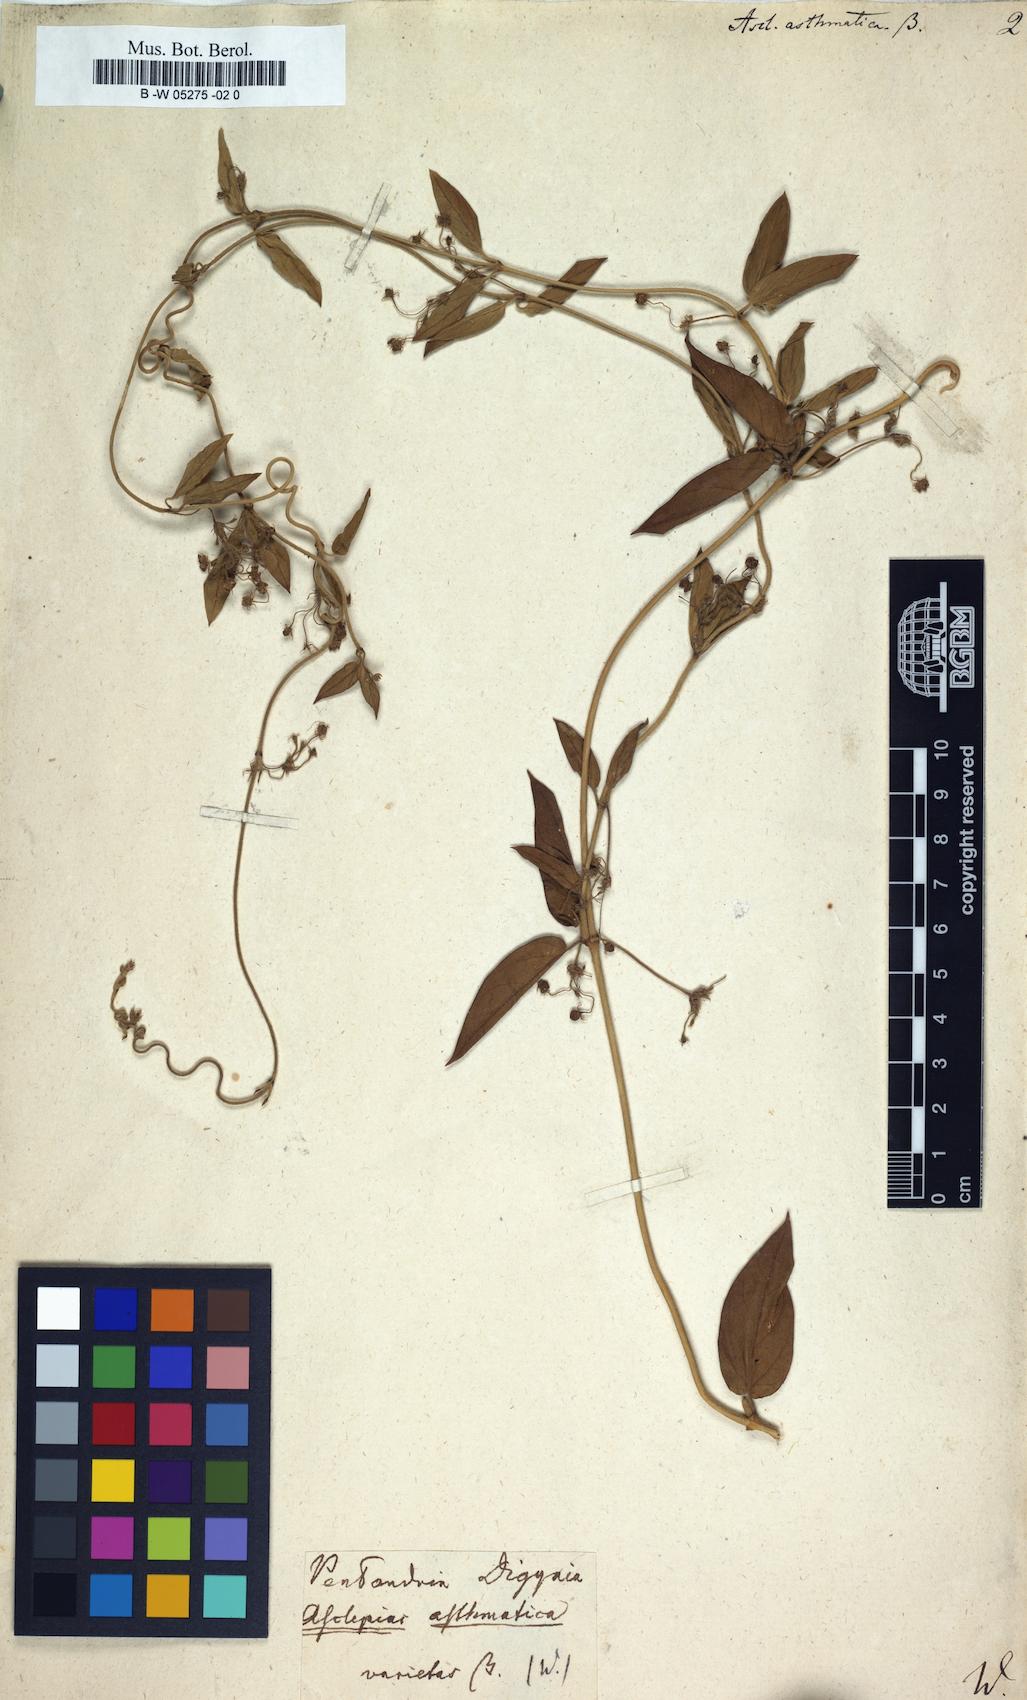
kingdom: Plantae
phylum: Tracheophyta
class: Magnoliopsida
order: Gentianales
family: Apocynaceae
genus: Vincetoxicum
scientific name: Vincetoxicum indicum
